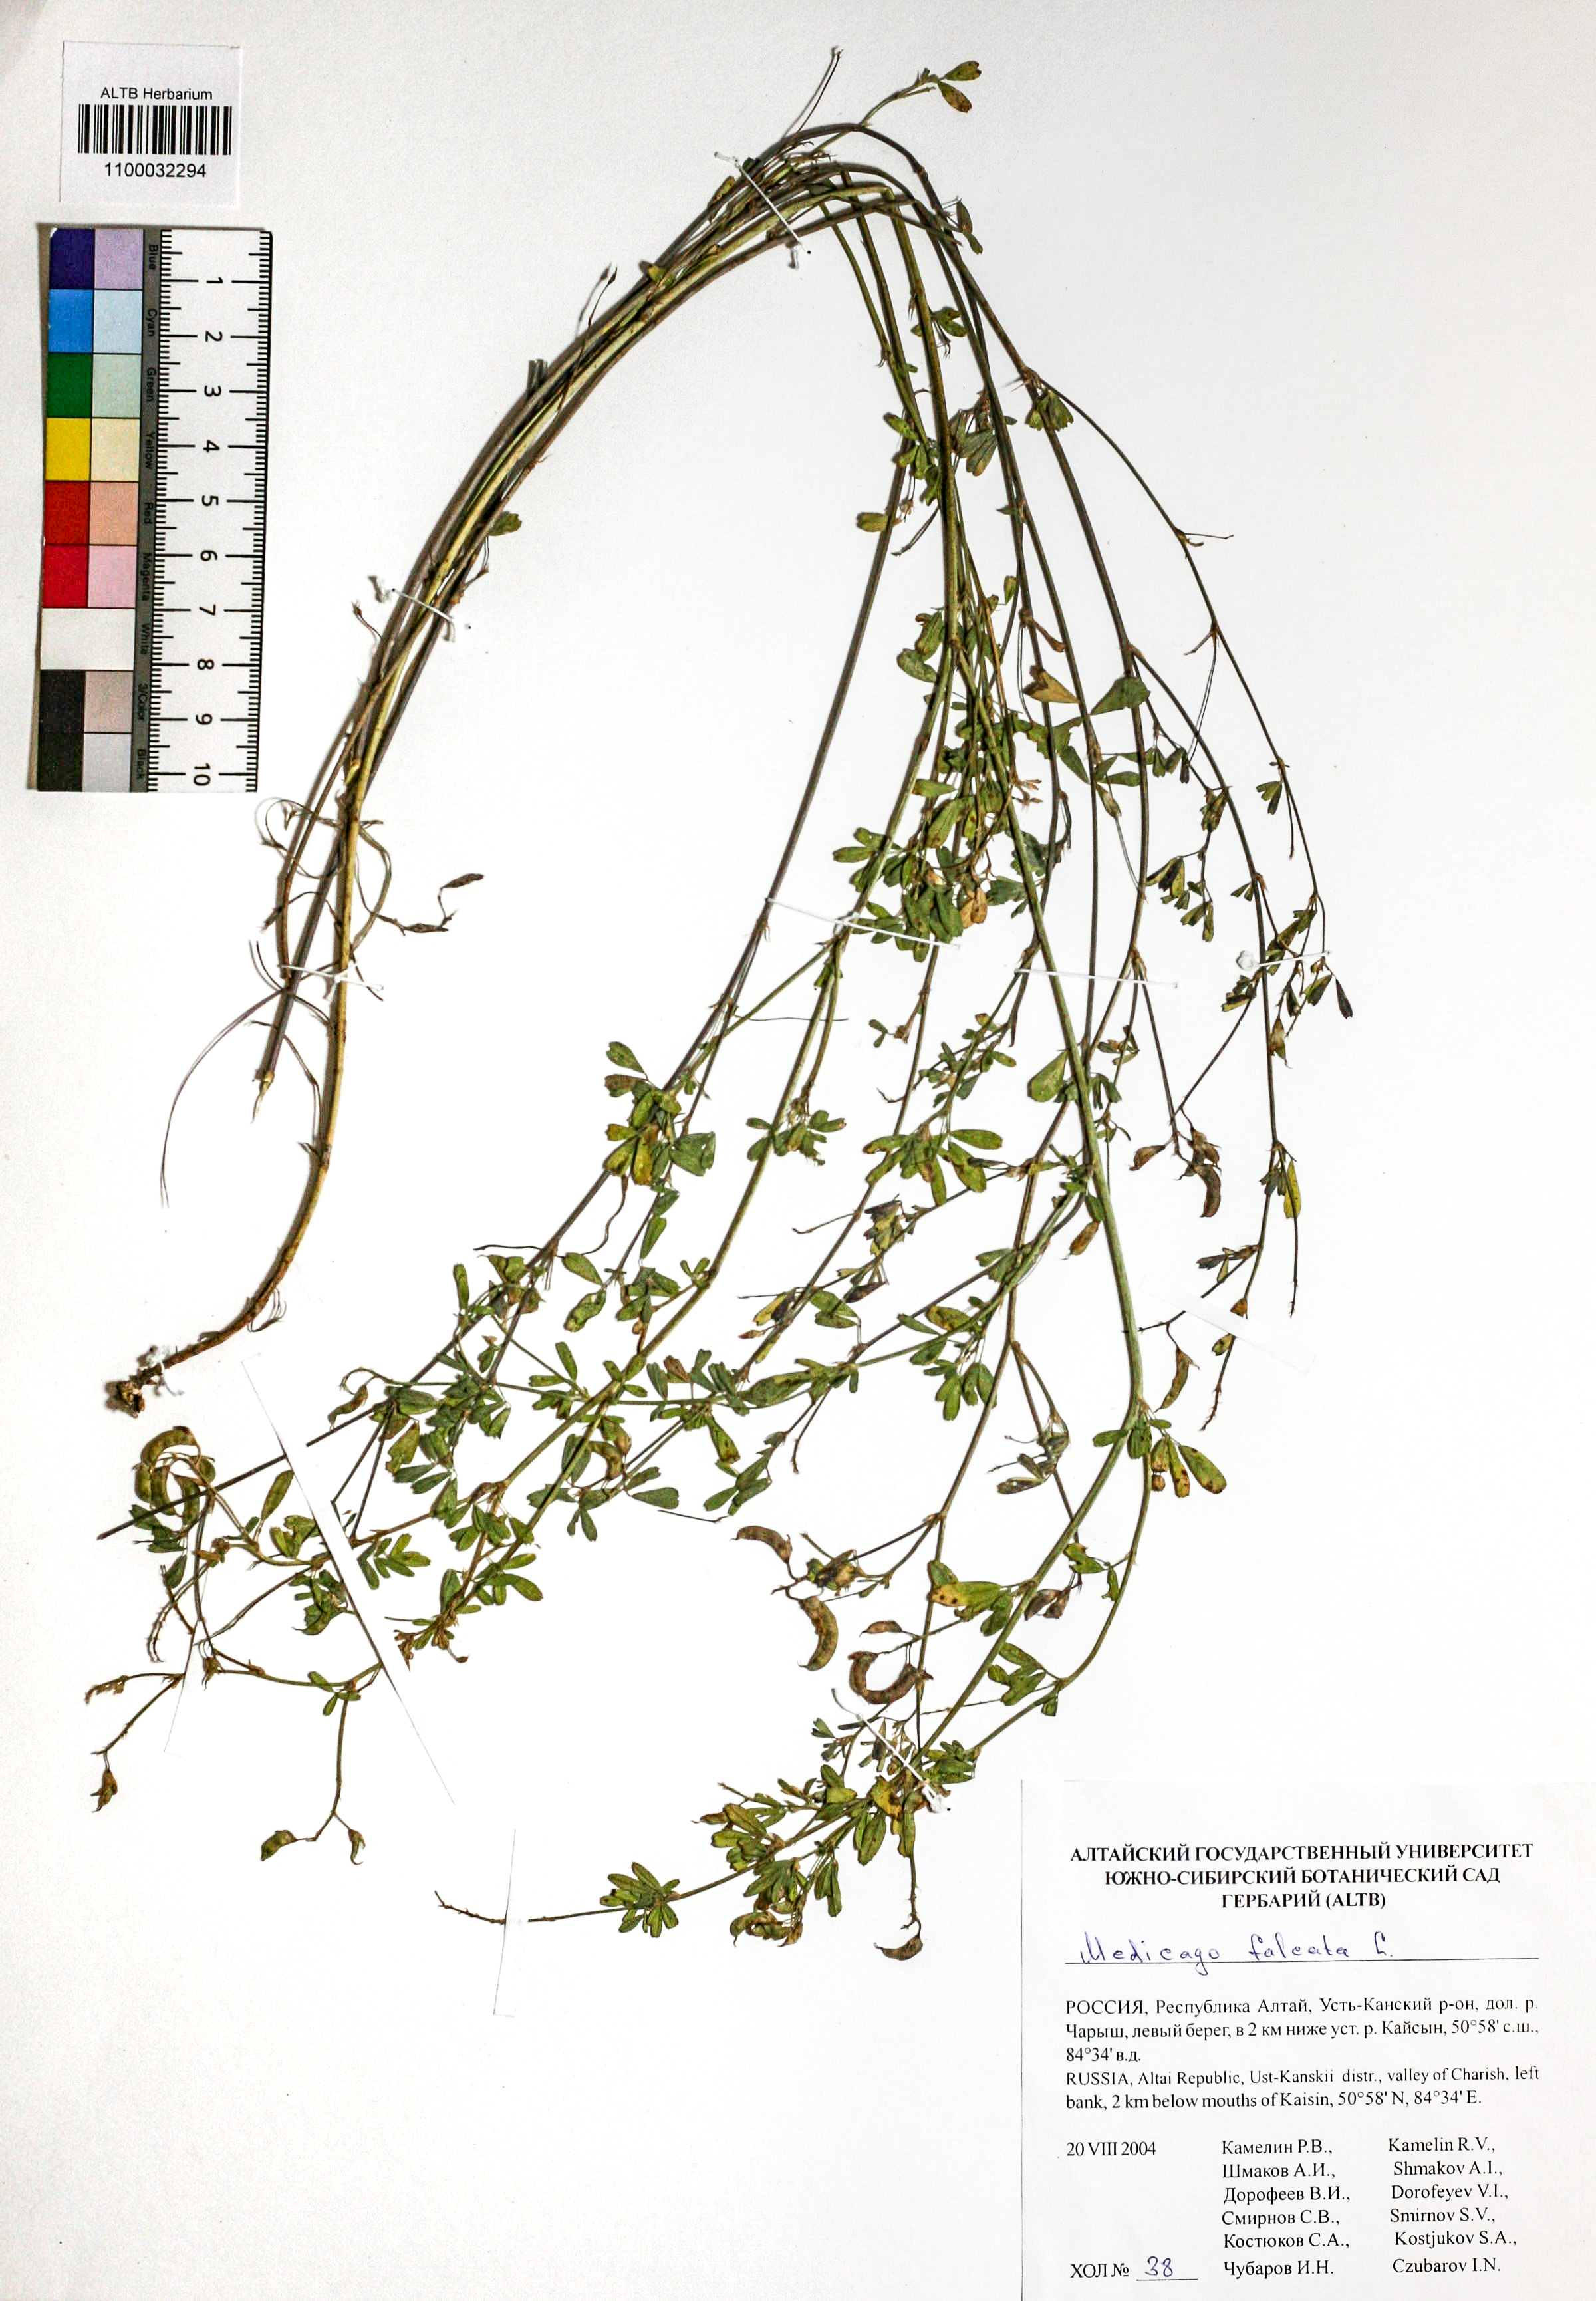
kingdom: Plantae
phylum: Tracheophyta
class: Magnoliopsida
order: Fabales
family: Fabaceae
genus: Medicago
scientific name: Medicago falcata
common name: Sickle medick
